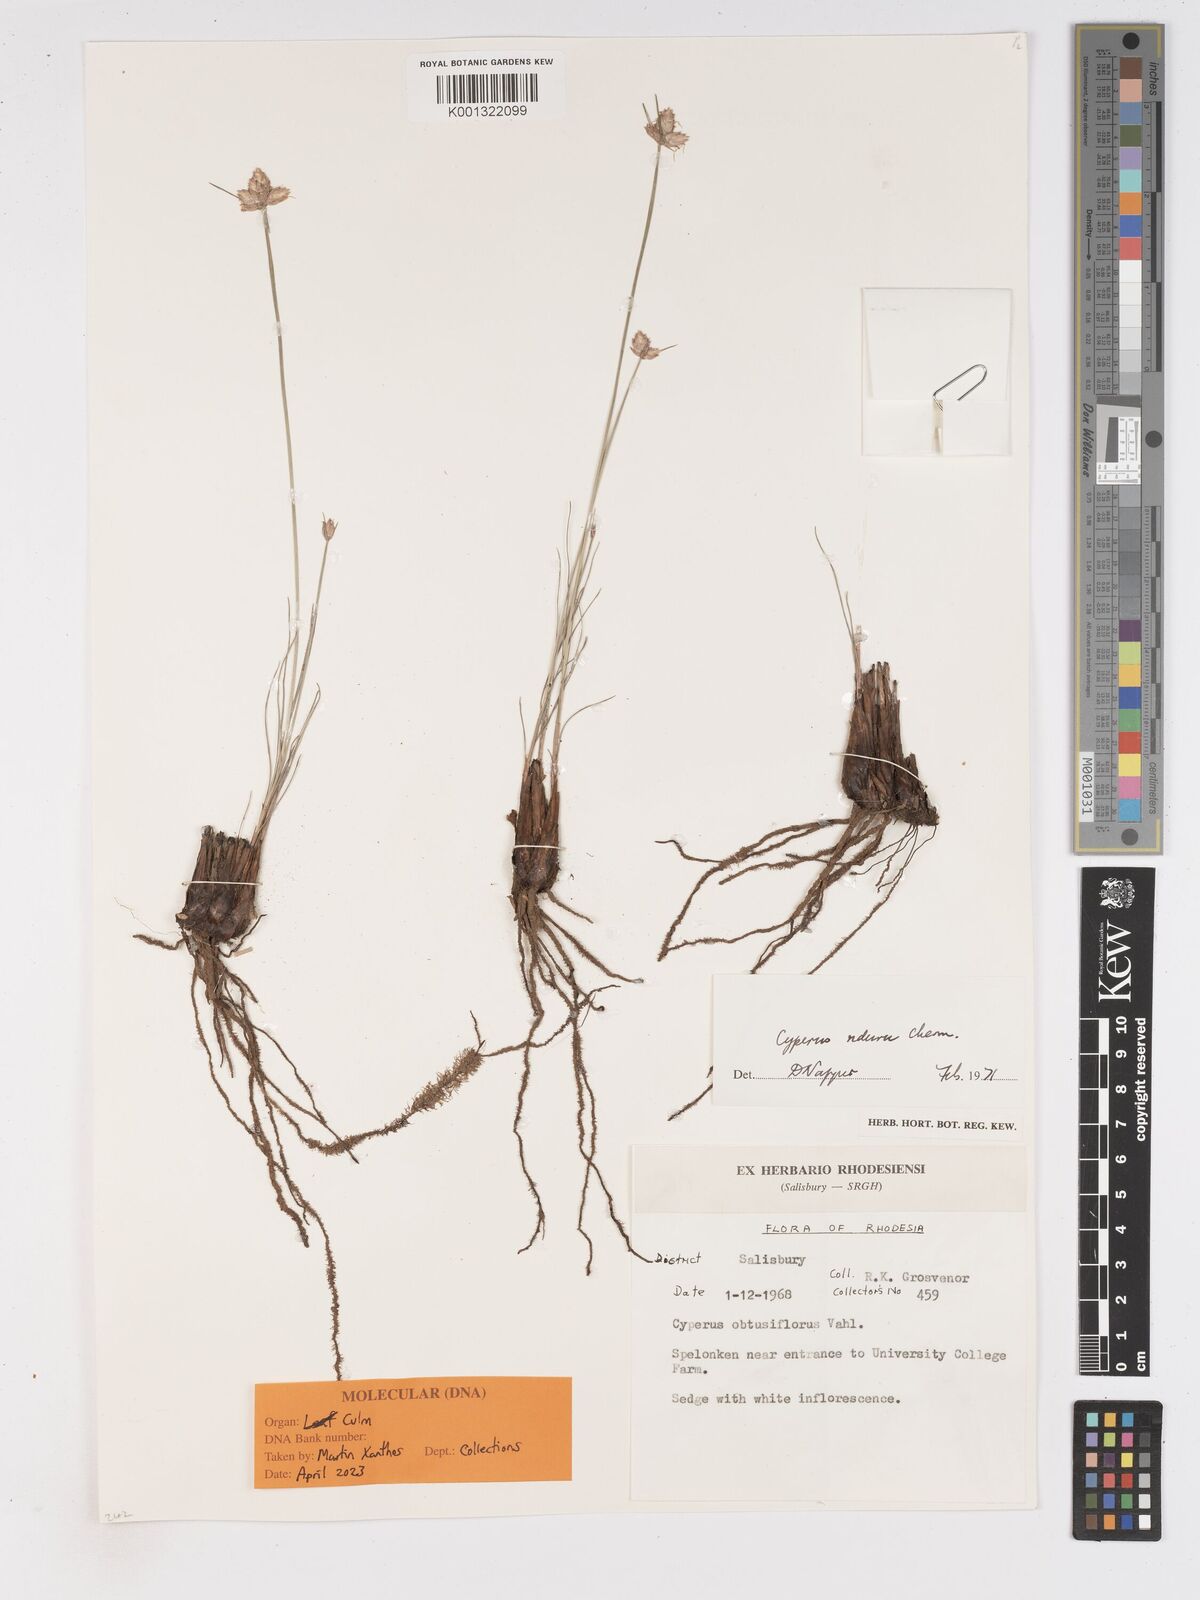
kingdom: Plantae
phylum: Tracheophyta
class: Liliopsida
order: Poales
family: Cyperaceae
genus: Cyperus
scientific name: Cyperus nduru
